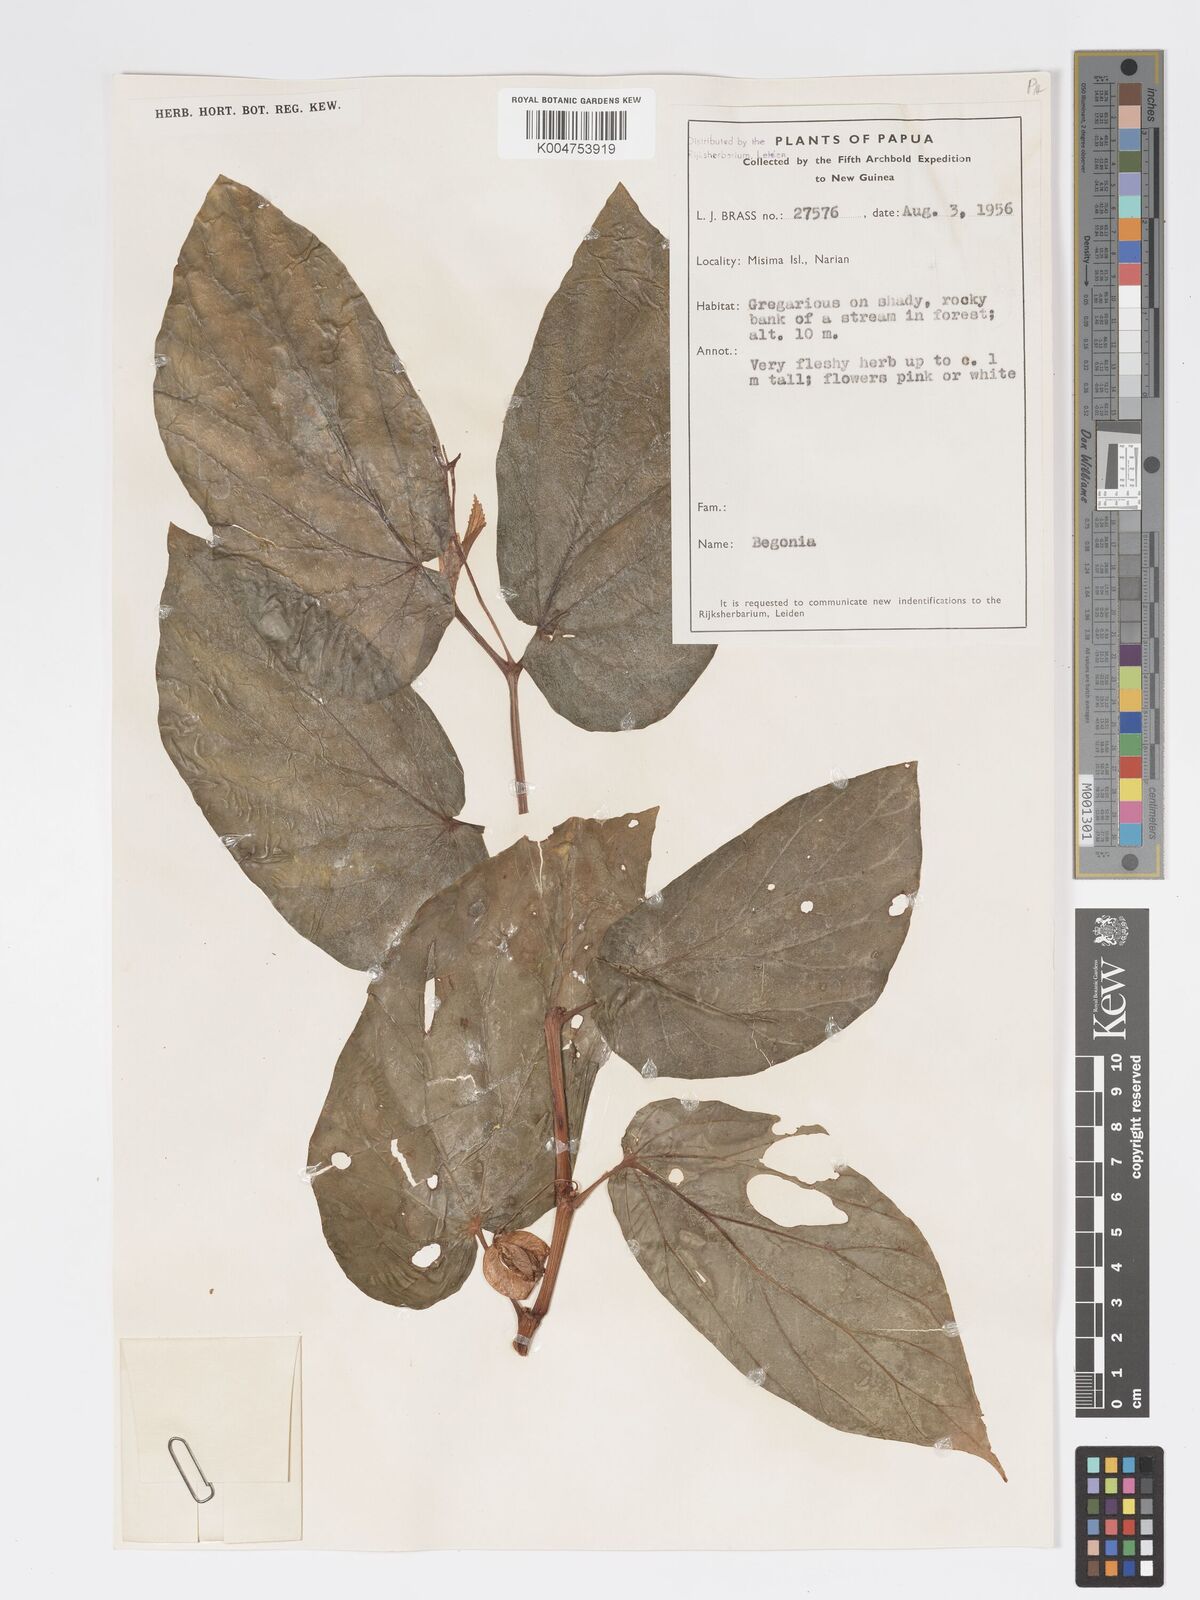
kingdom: Plantae
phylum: Tracheophyta
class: Magnoliopsida
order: Cucurbitales
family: Begoniaceae
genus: Begonia
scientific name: Begonia lauterbachii
